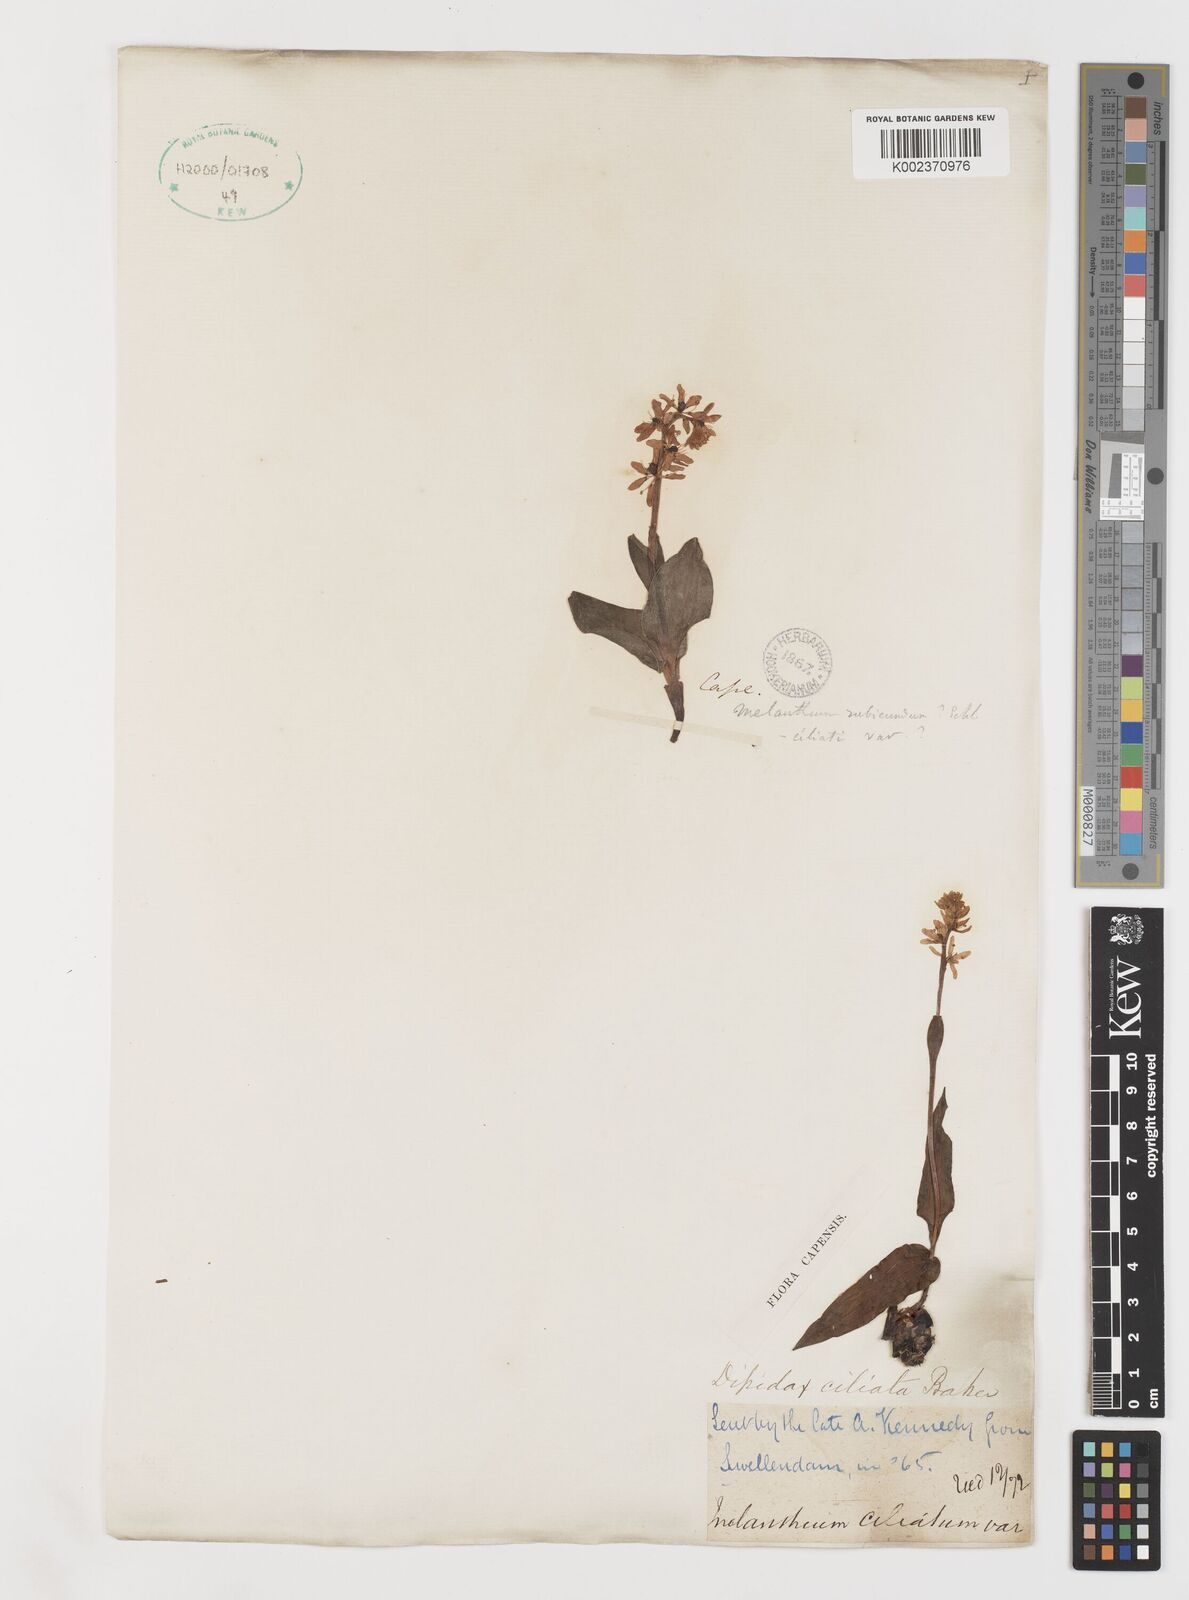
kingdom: Plantae
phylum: Tracheophyta
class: Liliopsida
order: Liliales
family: Colchicaceae
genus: Wurmbea
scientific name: Wurmbea punctata
